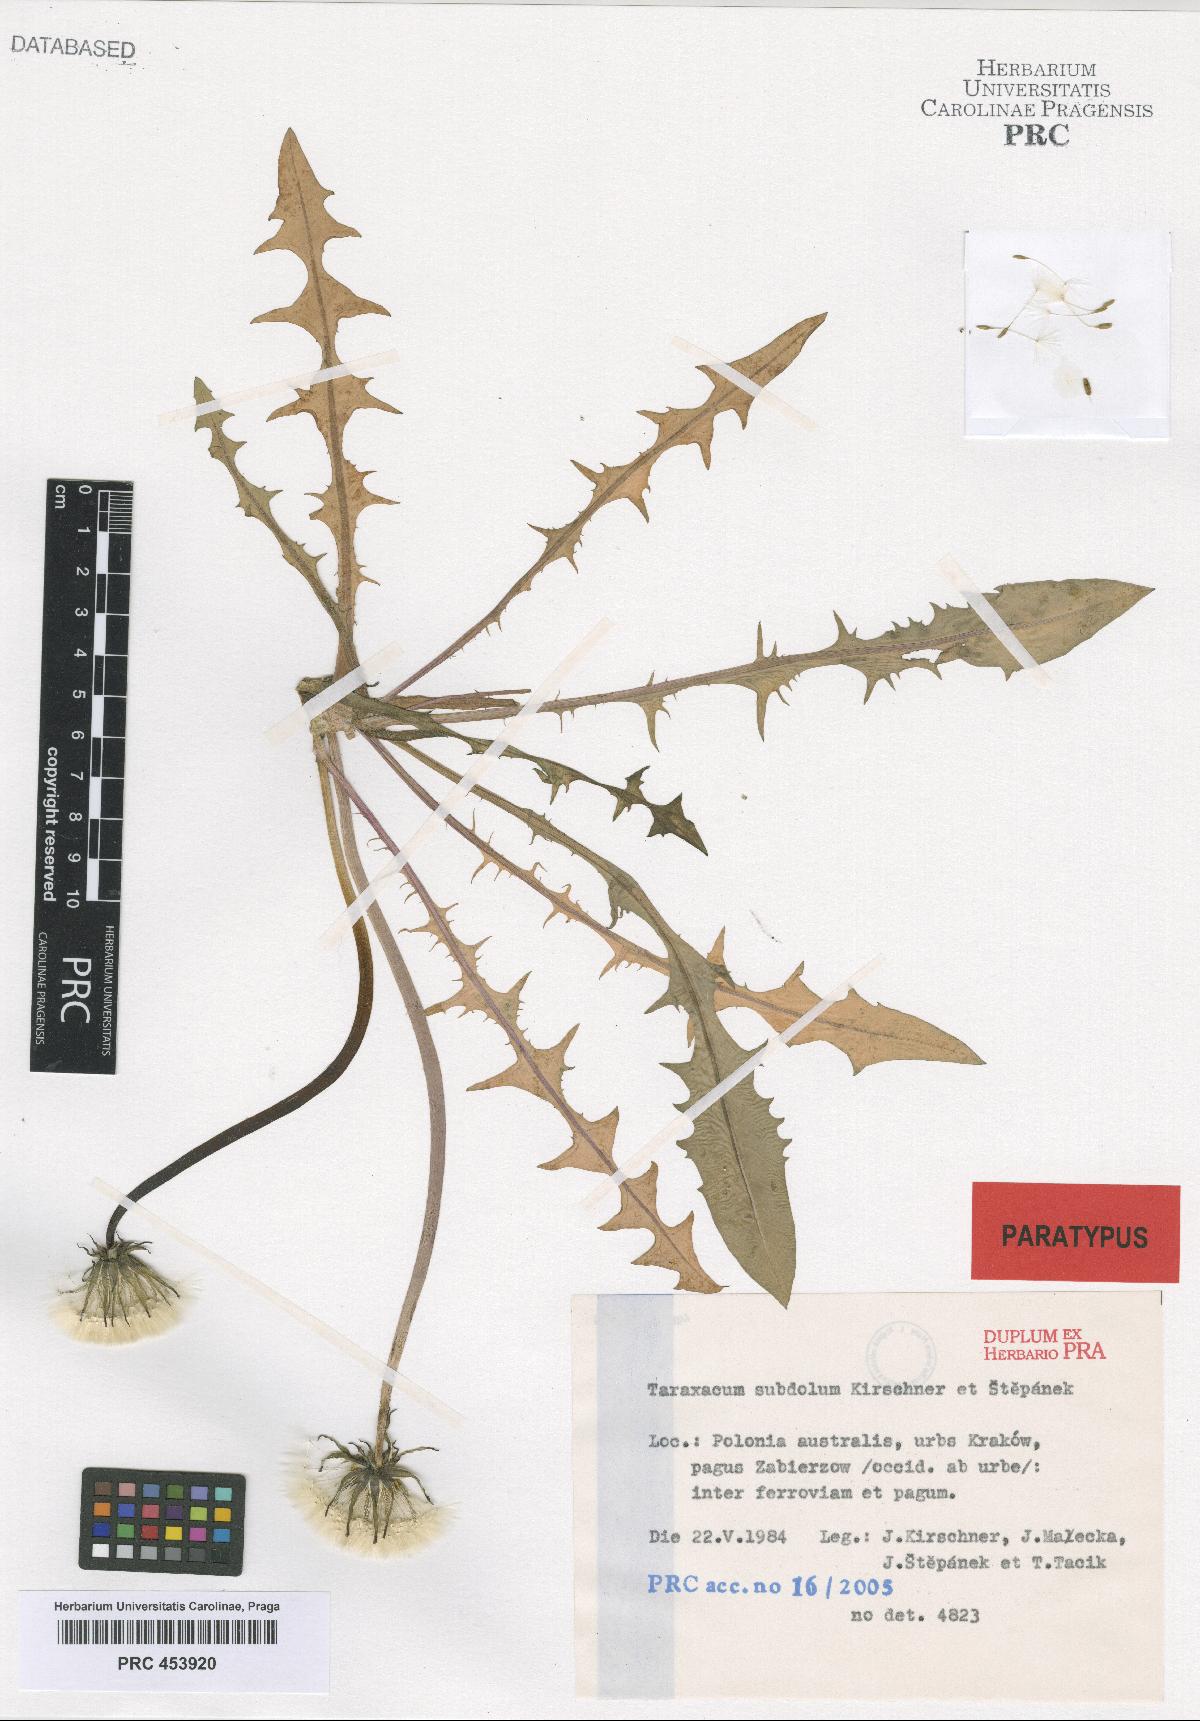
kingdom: Plantae
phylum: Tracheophyta
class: Magnoliopsida
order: Asterales
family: Asteraceae
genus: Taraxacum
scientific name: Taraxacum subdolum
